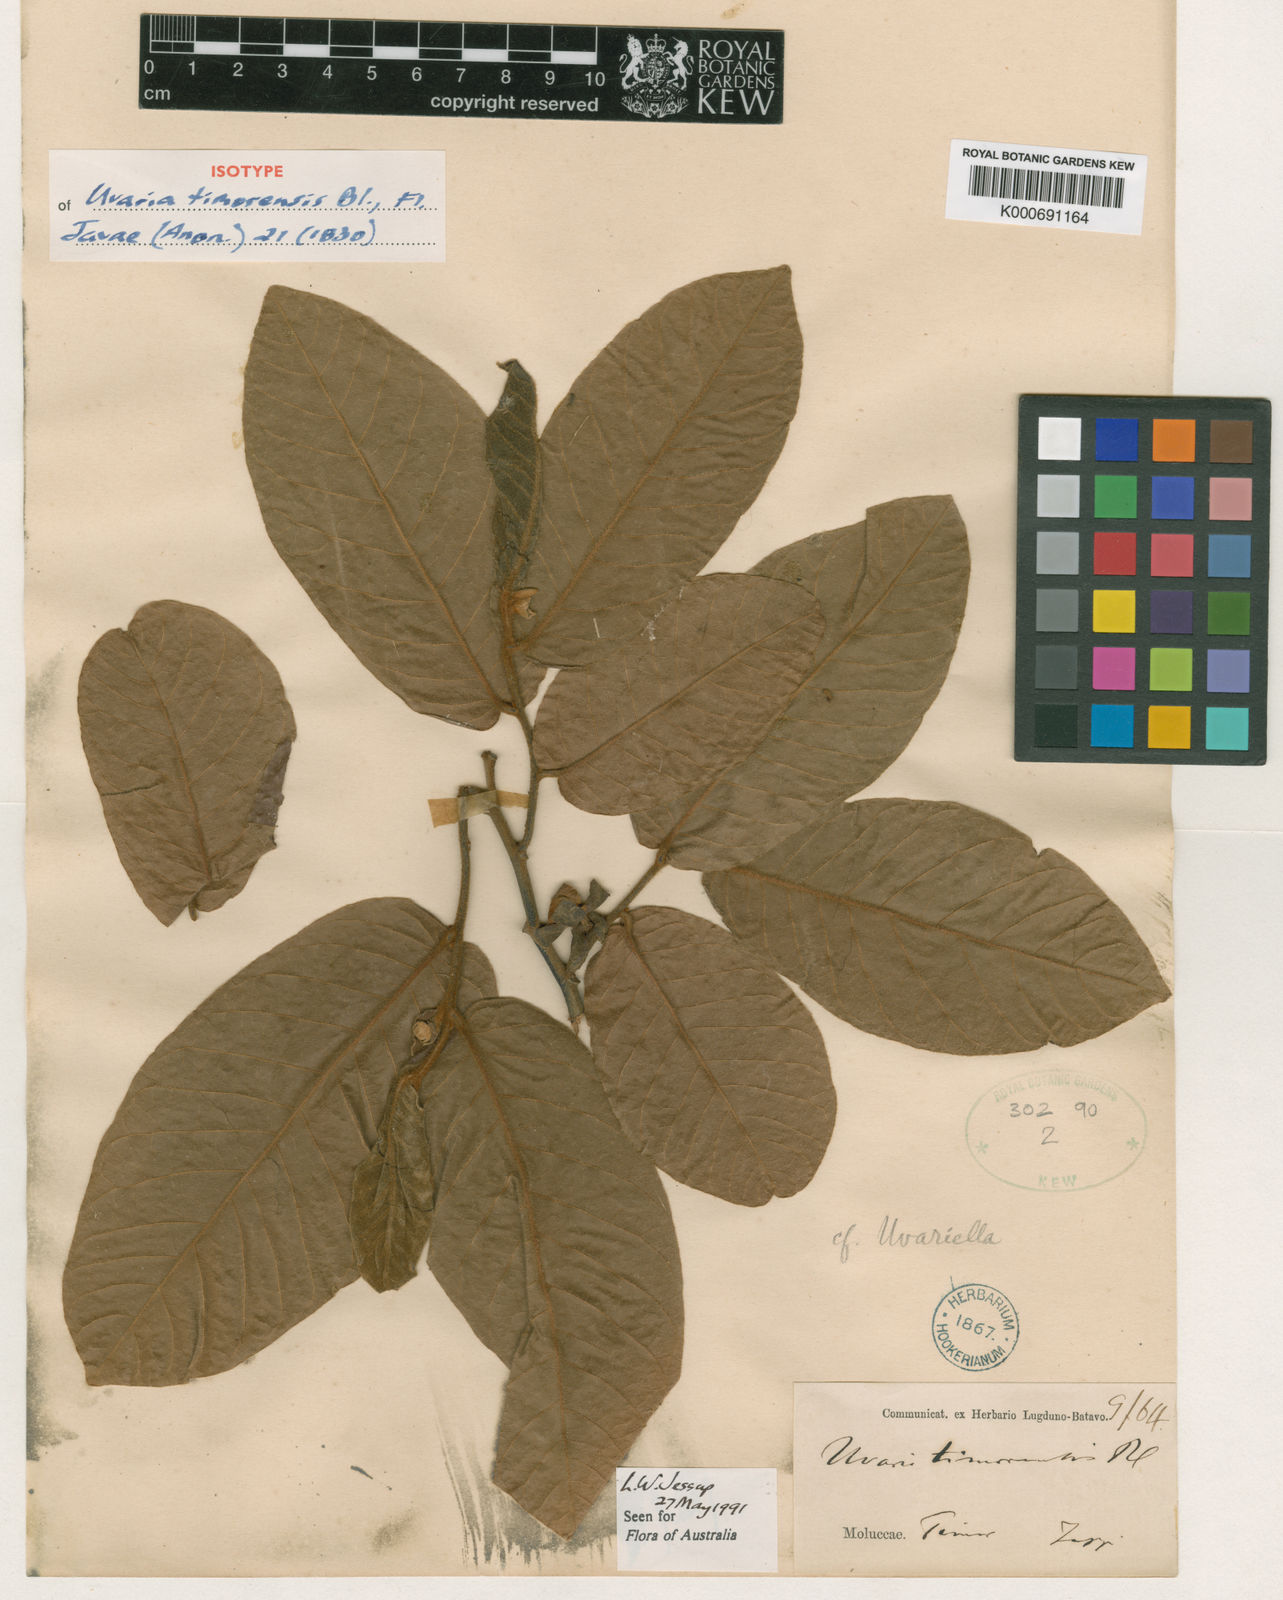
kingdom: Plantae
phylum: Tracheophyta
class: Magnoliopsida
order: Magnoliales
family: Annonaceae
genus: Uvaria
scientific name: Uvaria timoriensis
